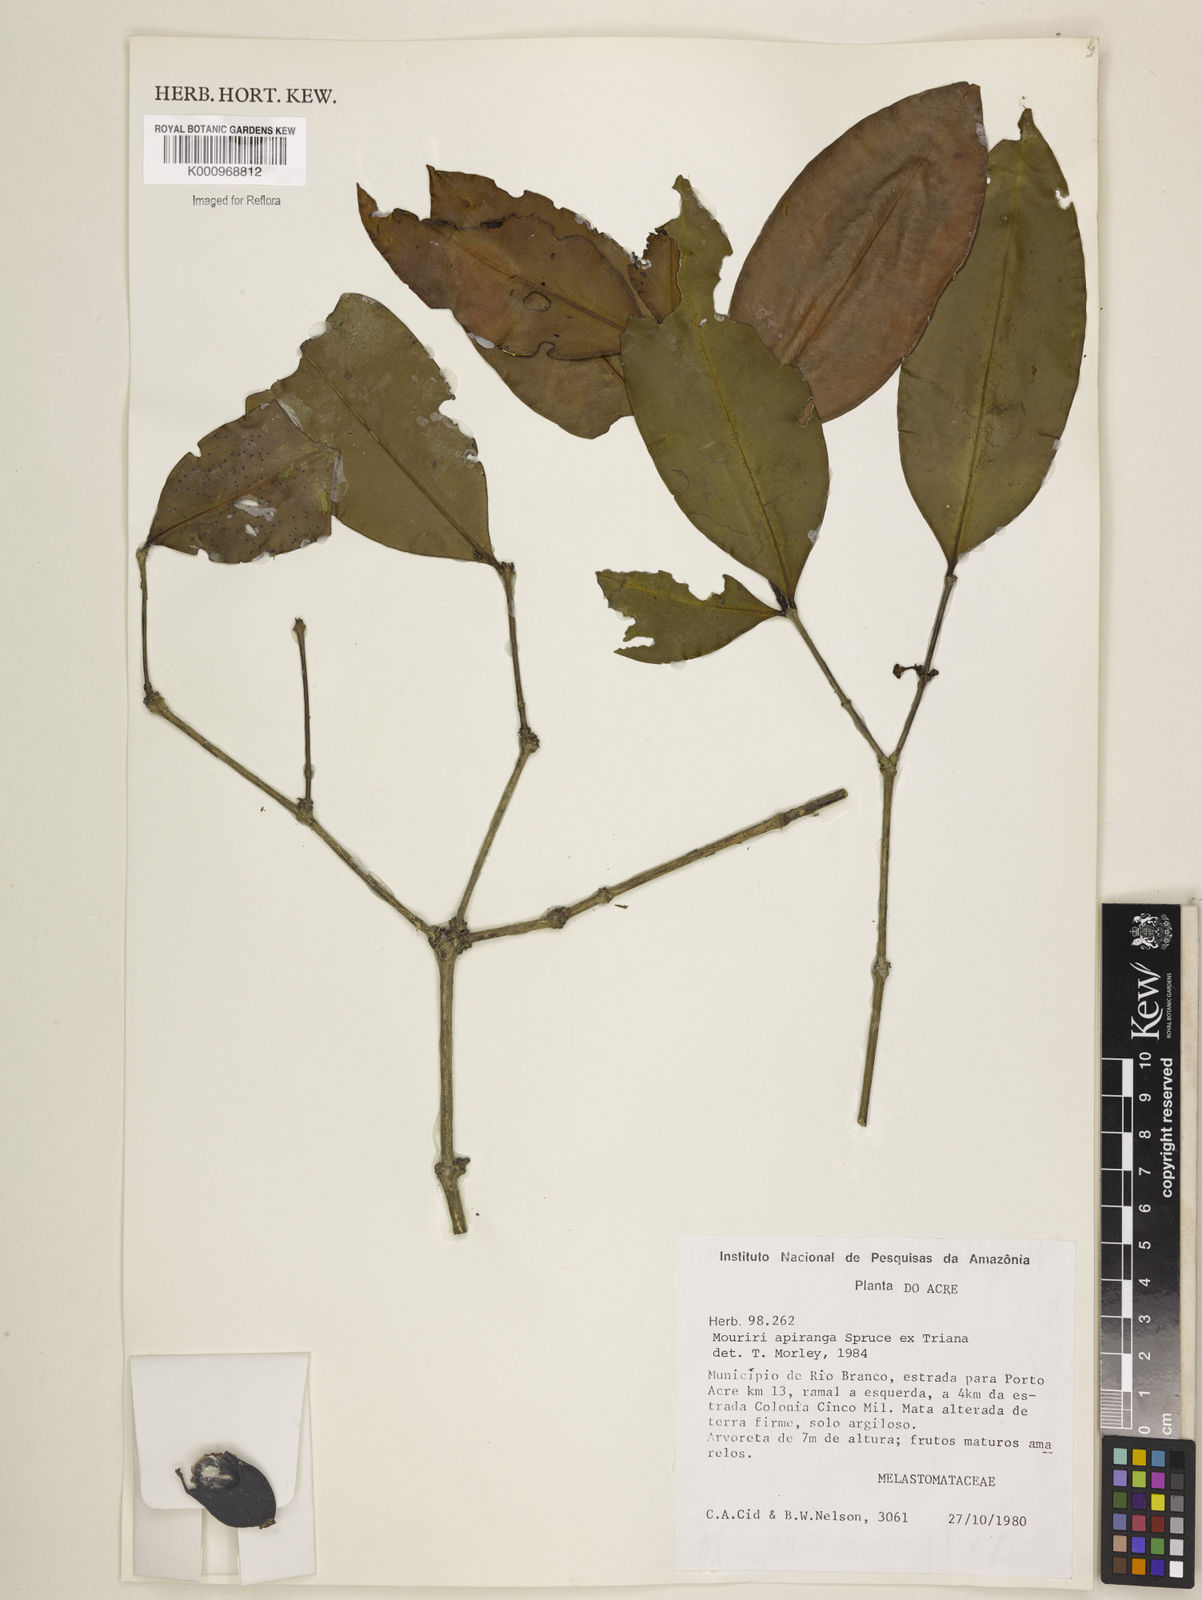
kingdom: Plantae
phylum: Tracheophyta
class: Magnoliopsida
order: Myrtales
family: Melastomataceae
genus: Mouriri
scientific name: Mouriri apiranga
